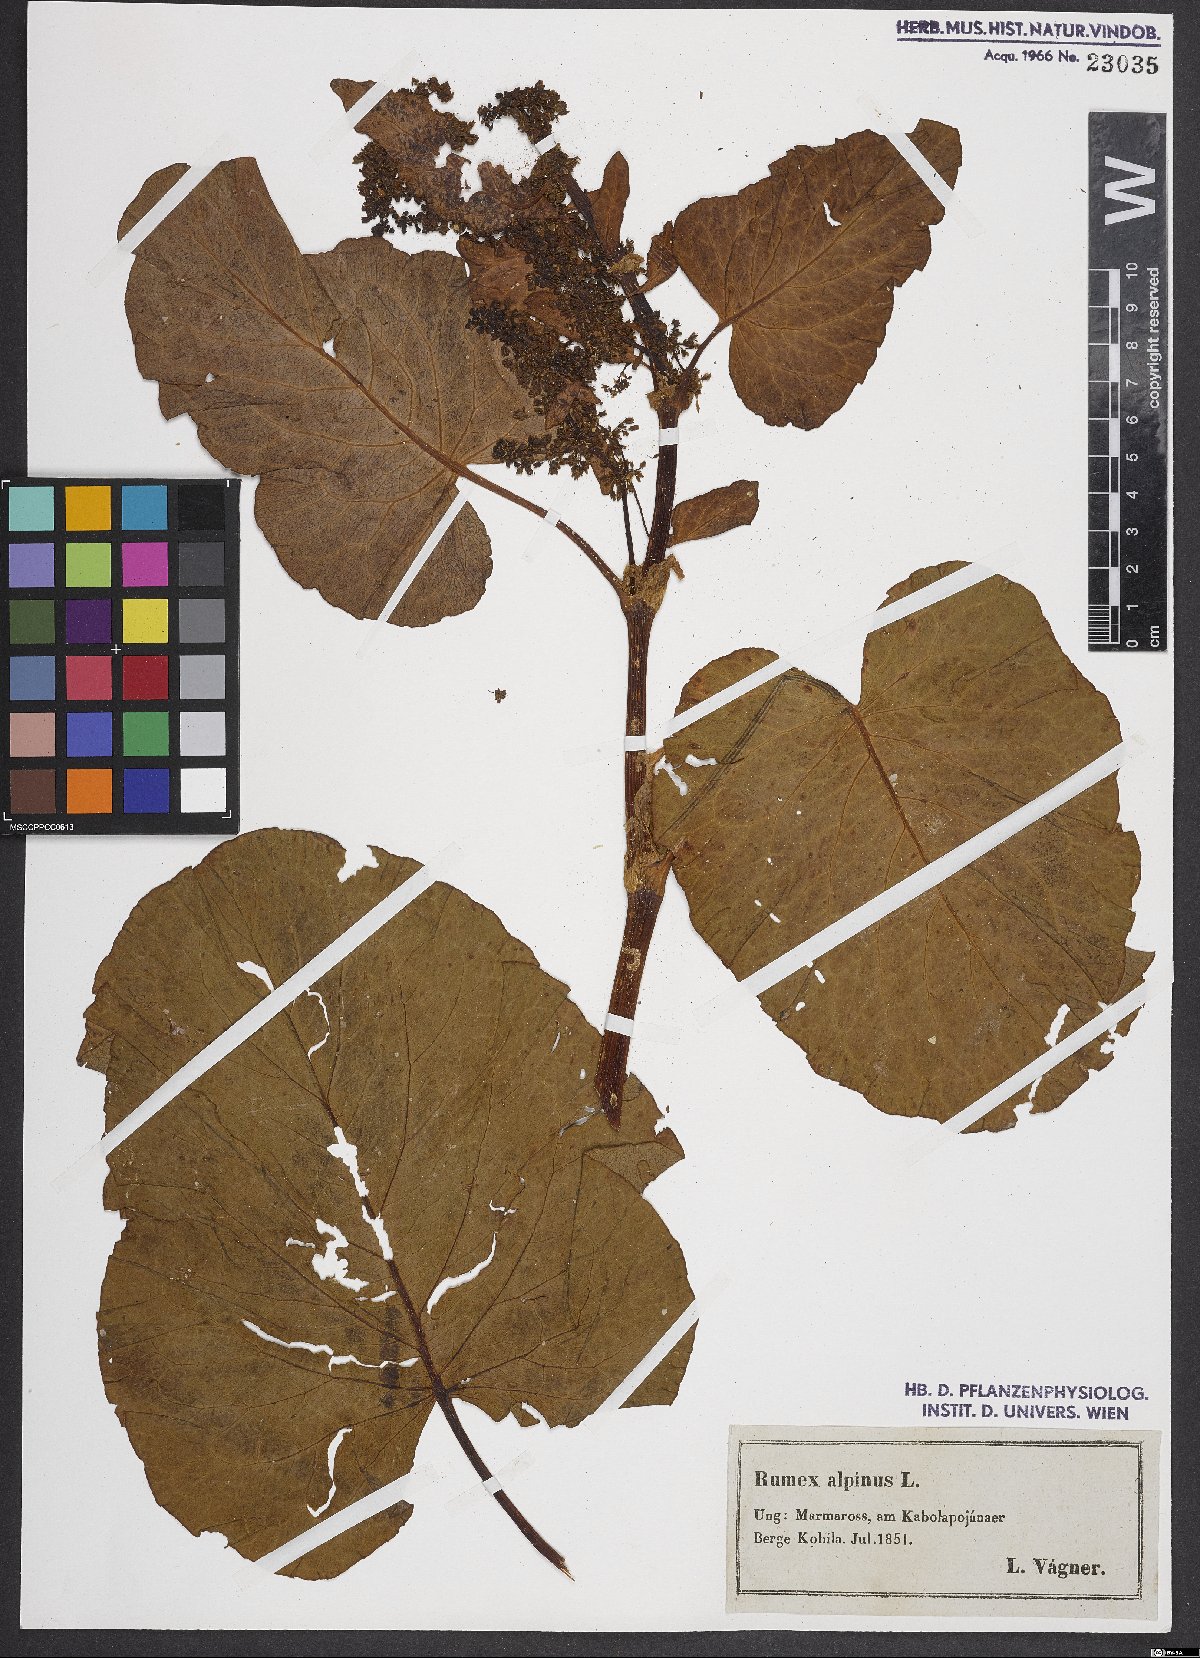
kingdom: Plantae
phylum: Tracheophyta
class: Magnoliopsida
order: Caryophyllales
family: Polygonaceae
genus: Rumex
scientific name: Rumex alpinus
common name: Alpine dock
